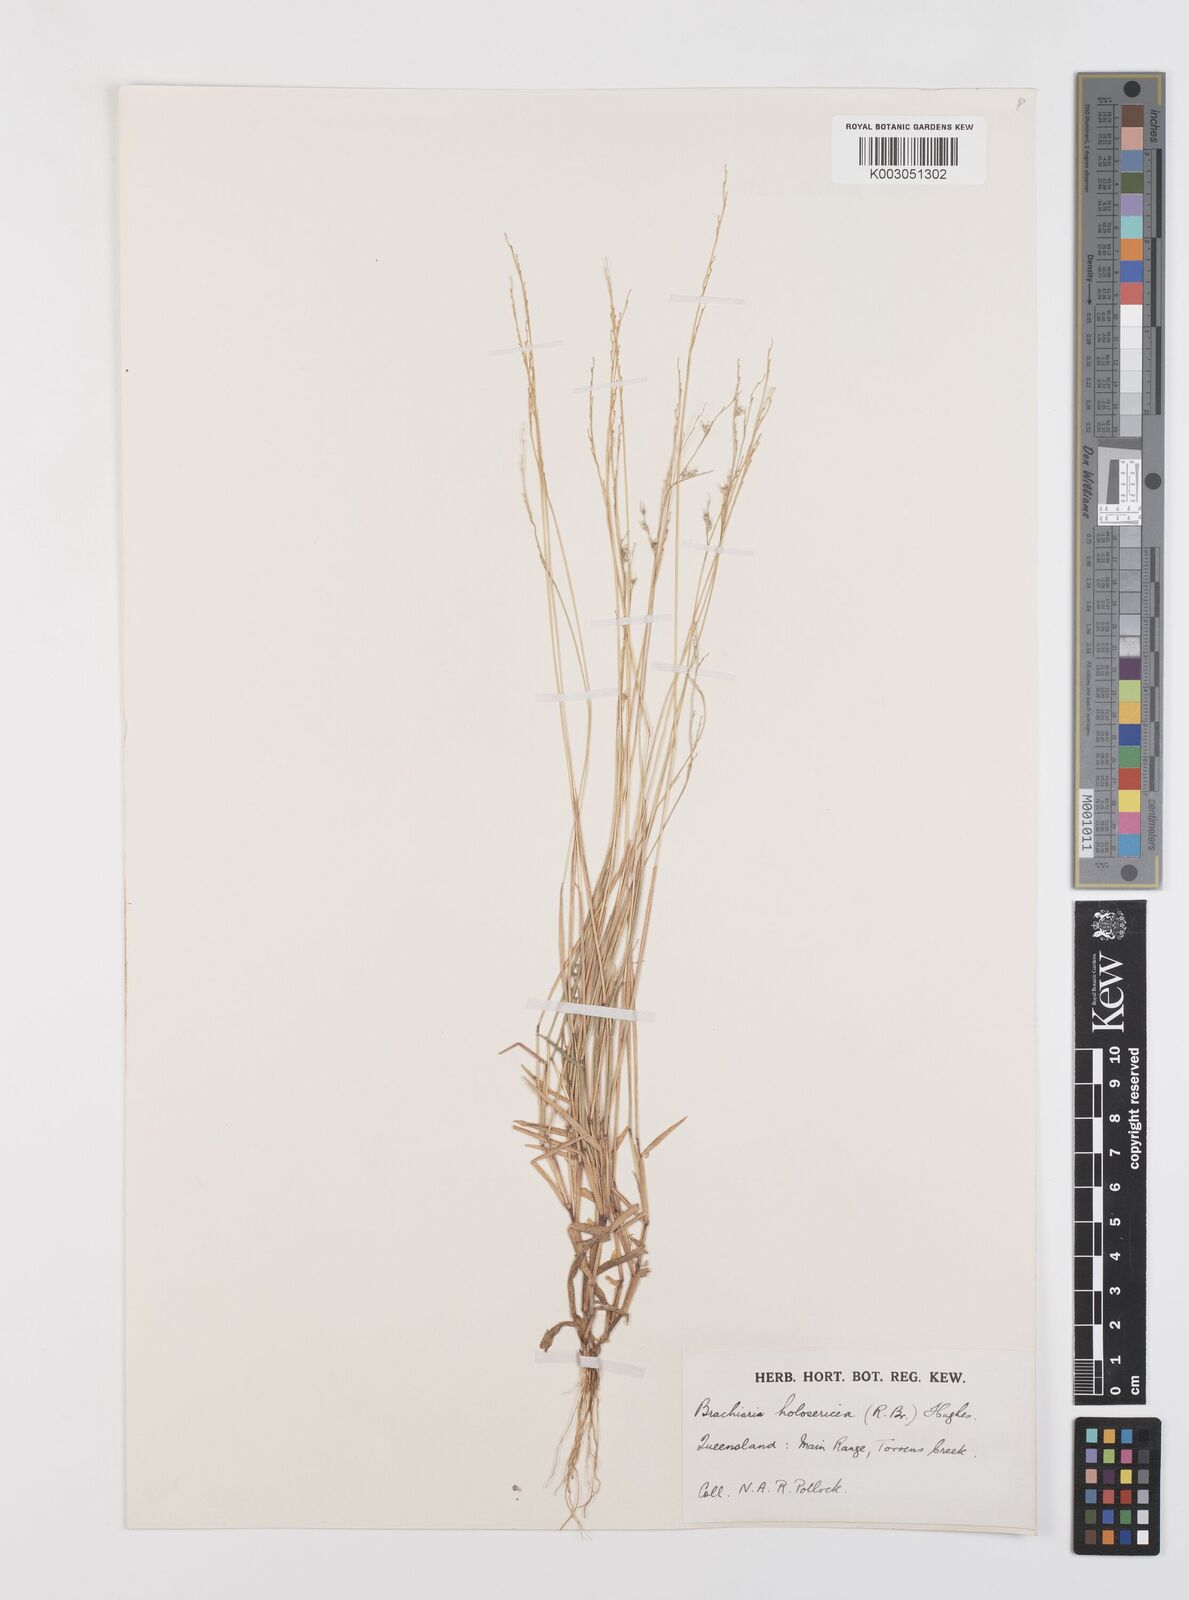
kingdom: Plantae
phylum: Tracheophyta
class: Liliopsida
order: Poales
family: Poaceae
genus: Urochloa
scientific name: Urochloa holosericea
